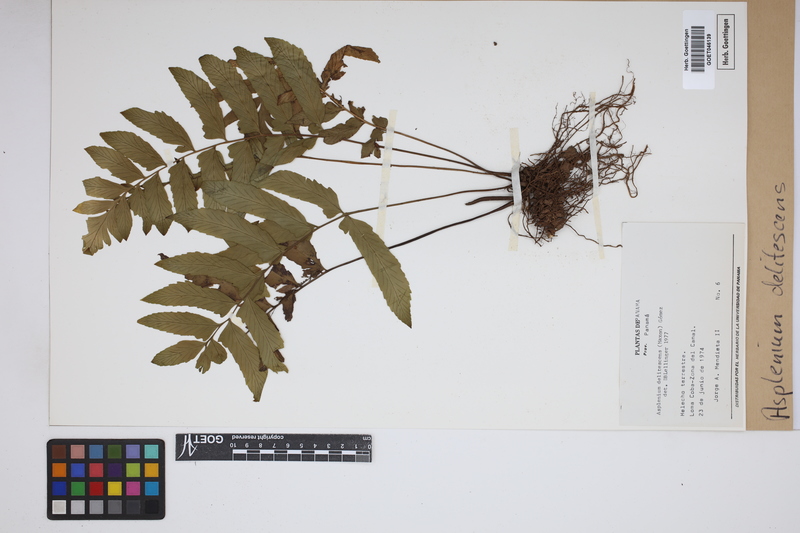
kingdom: Plantae
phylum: Tracheophyta
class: Polypodiopsida
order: Polypodiales
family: Aspleniaceae
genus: Hymenasplenium
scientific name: Hymenasplenium delitescens
